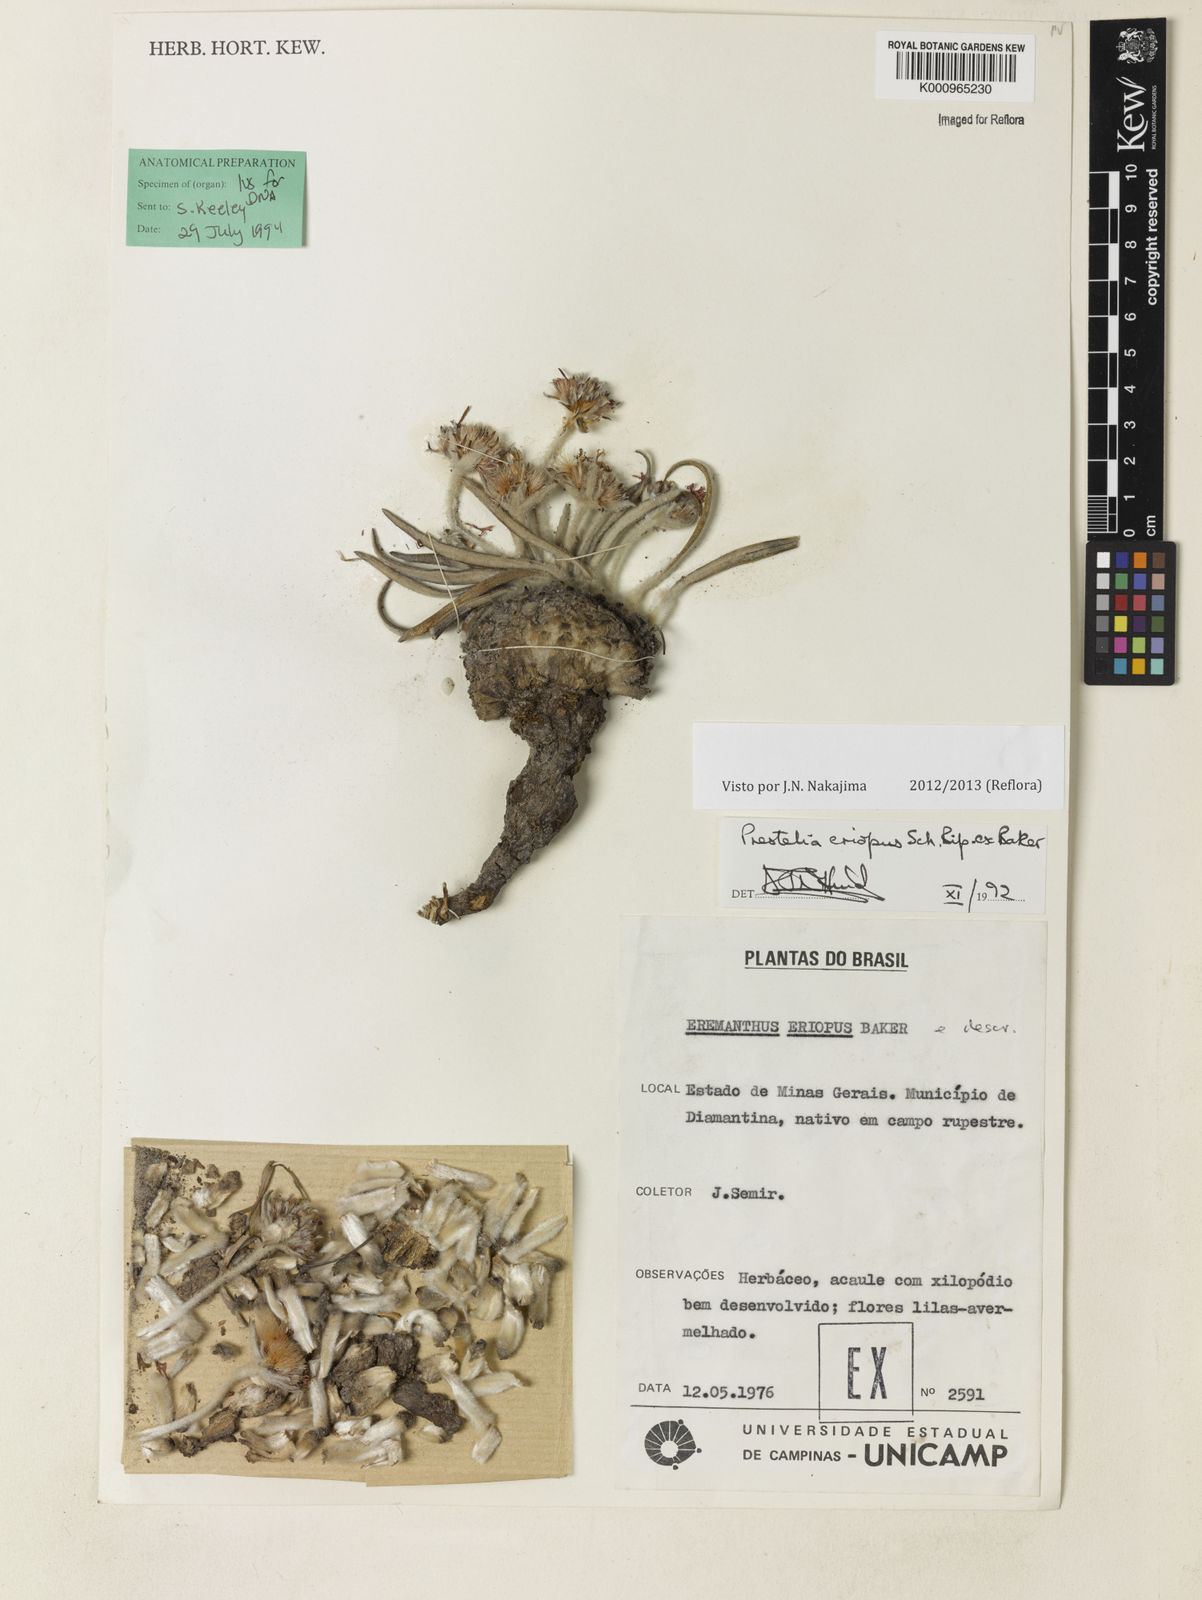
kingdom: Plantae
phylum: Tracheophyta
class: Magnoliopsida
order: Asterales
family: Asteraceae
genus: Prestelia
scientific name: Prestelia eriopus
